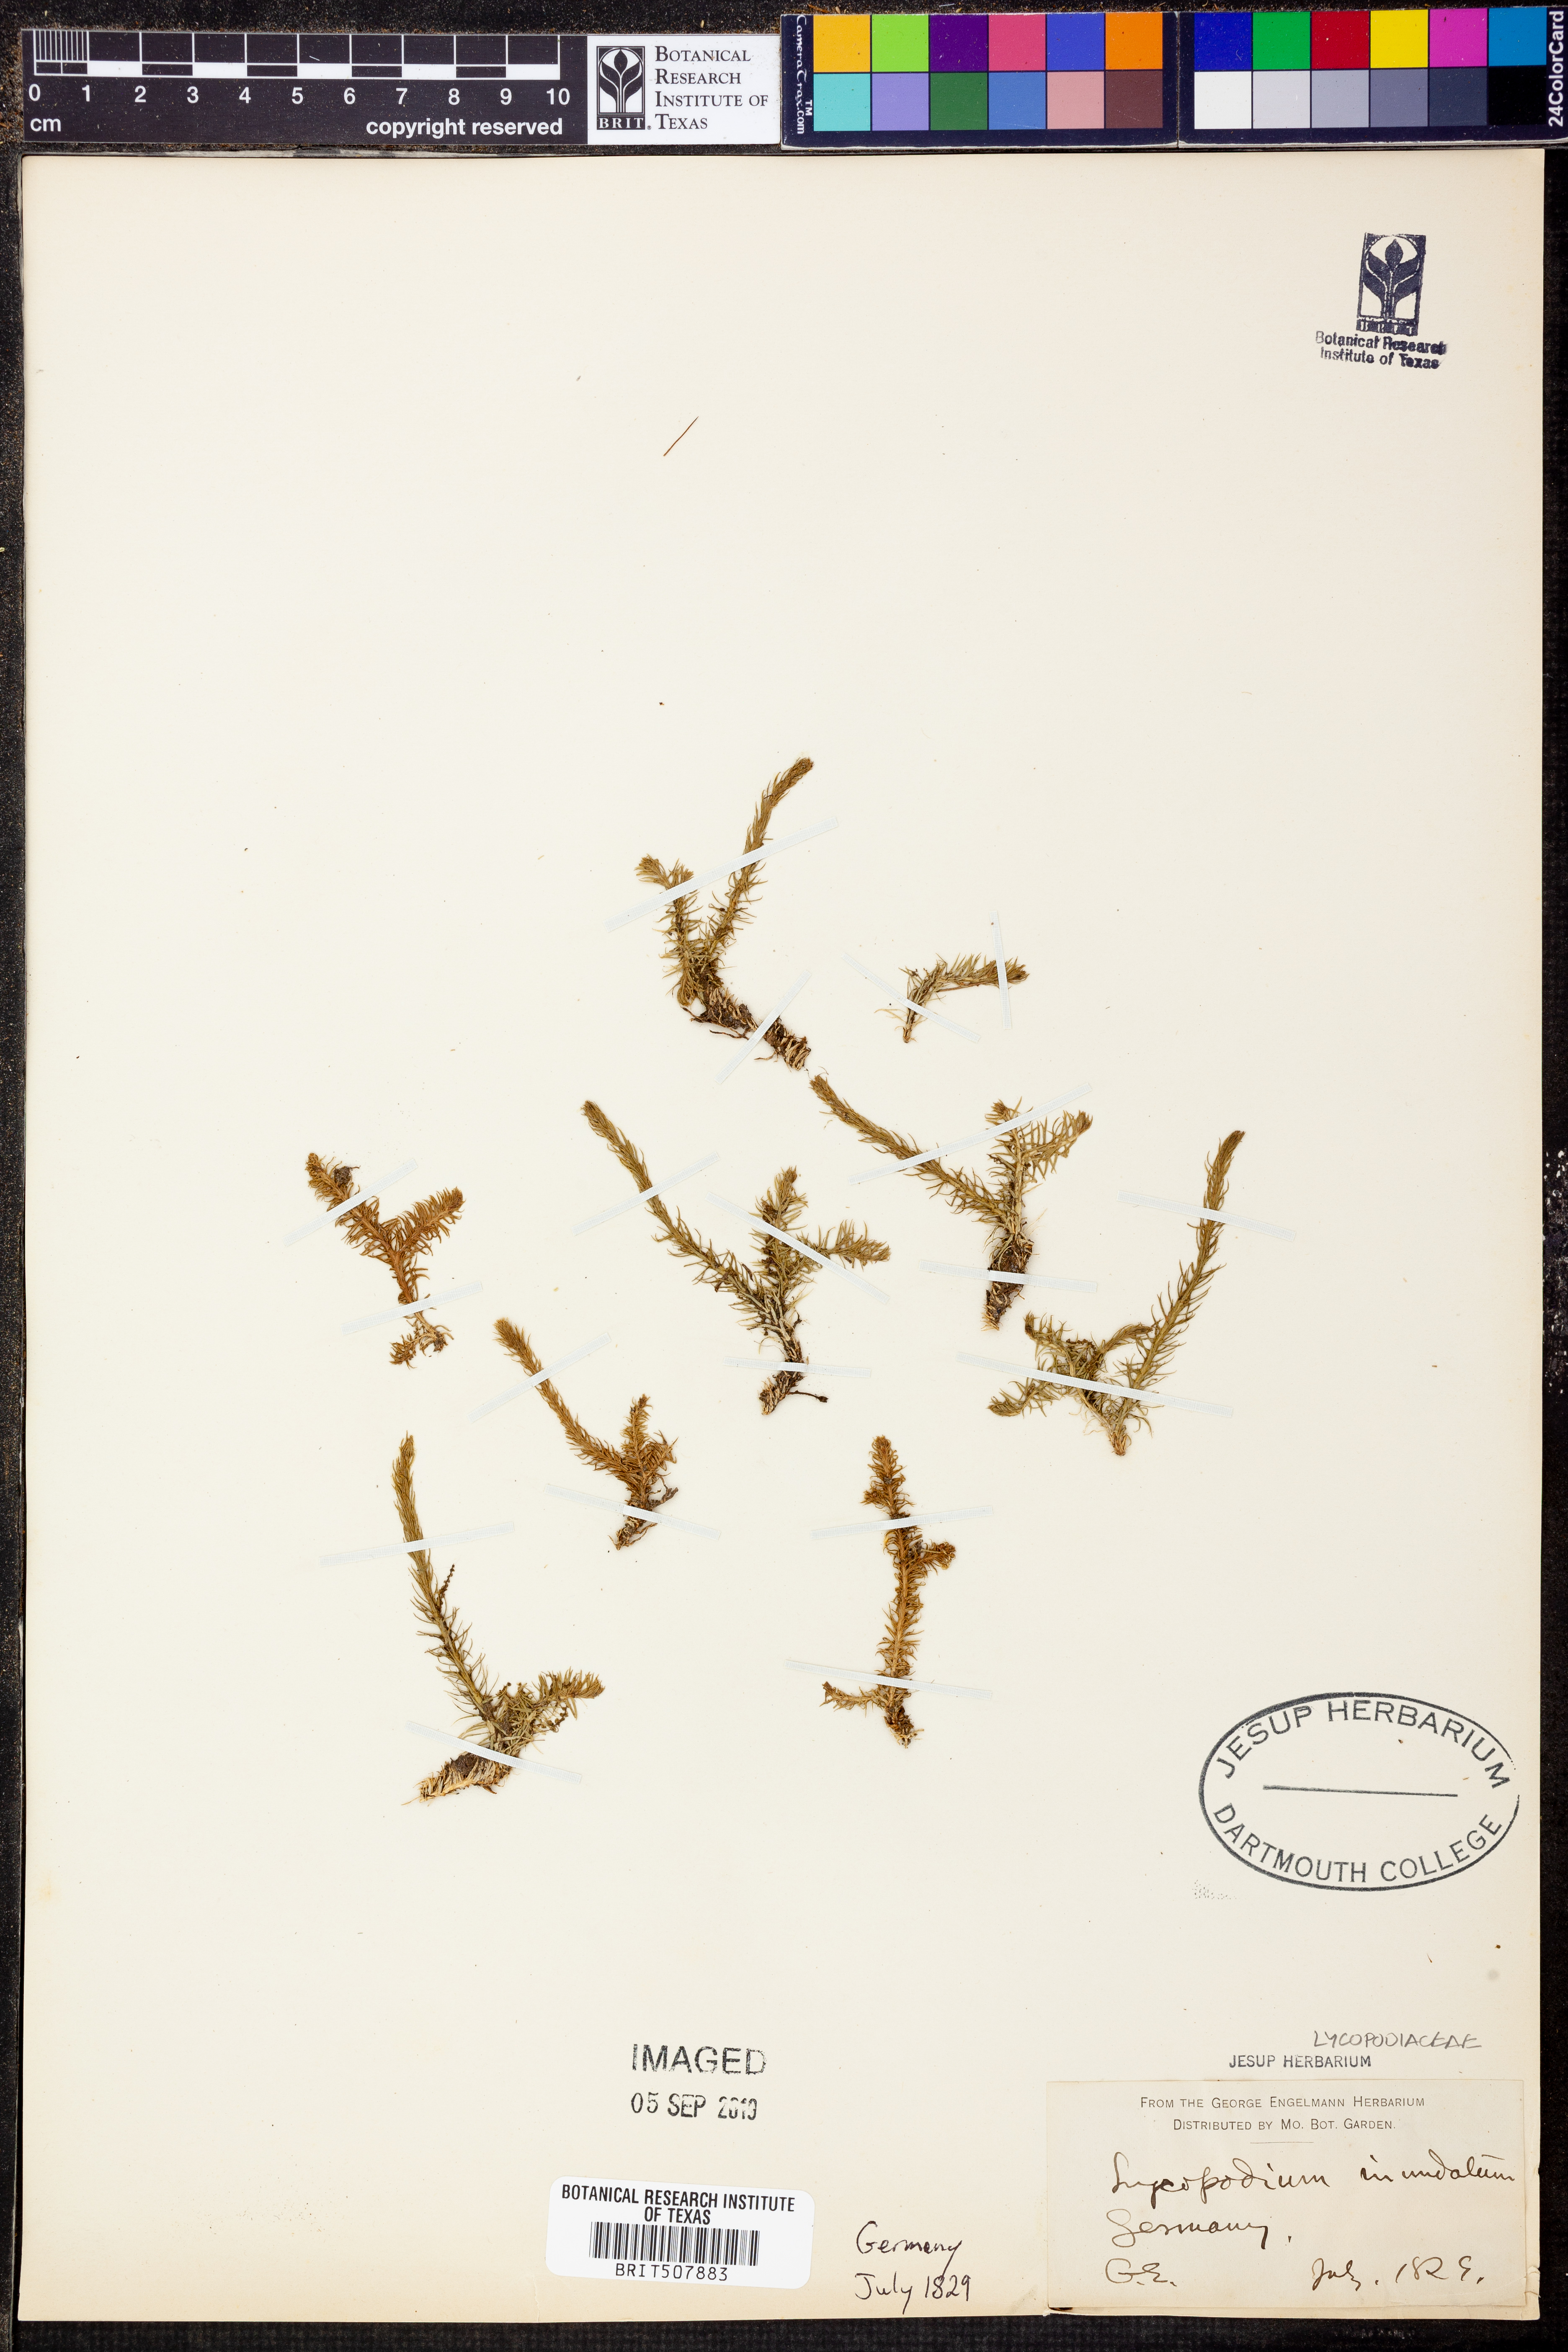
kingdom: Plantae
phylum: Tracheophyta
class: Lycopodiopsida
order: Lycopodiales
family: Lycopodiaceae
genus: Lycopodiella
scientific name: Lycopodiella inundata
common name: Marsh clubmoss
